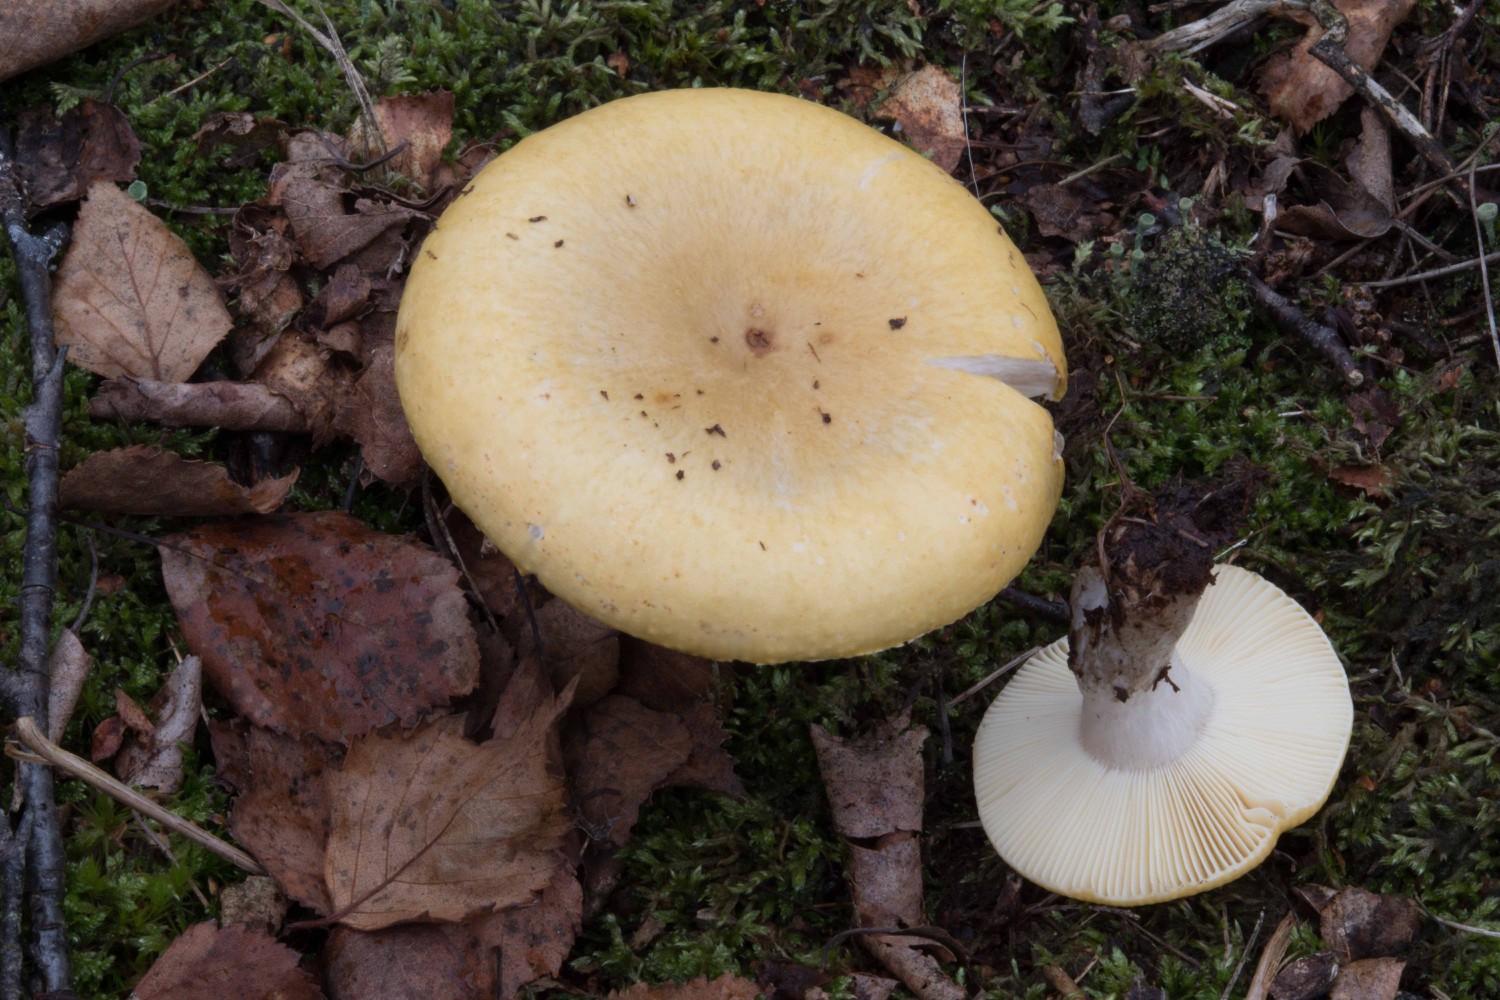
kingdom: Fungi
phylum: Basidiomycota
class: Agaricomycetes
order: Russulales
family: Russulaceae
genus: Russula
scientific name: Russula claroflava
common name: birke-skørhat
